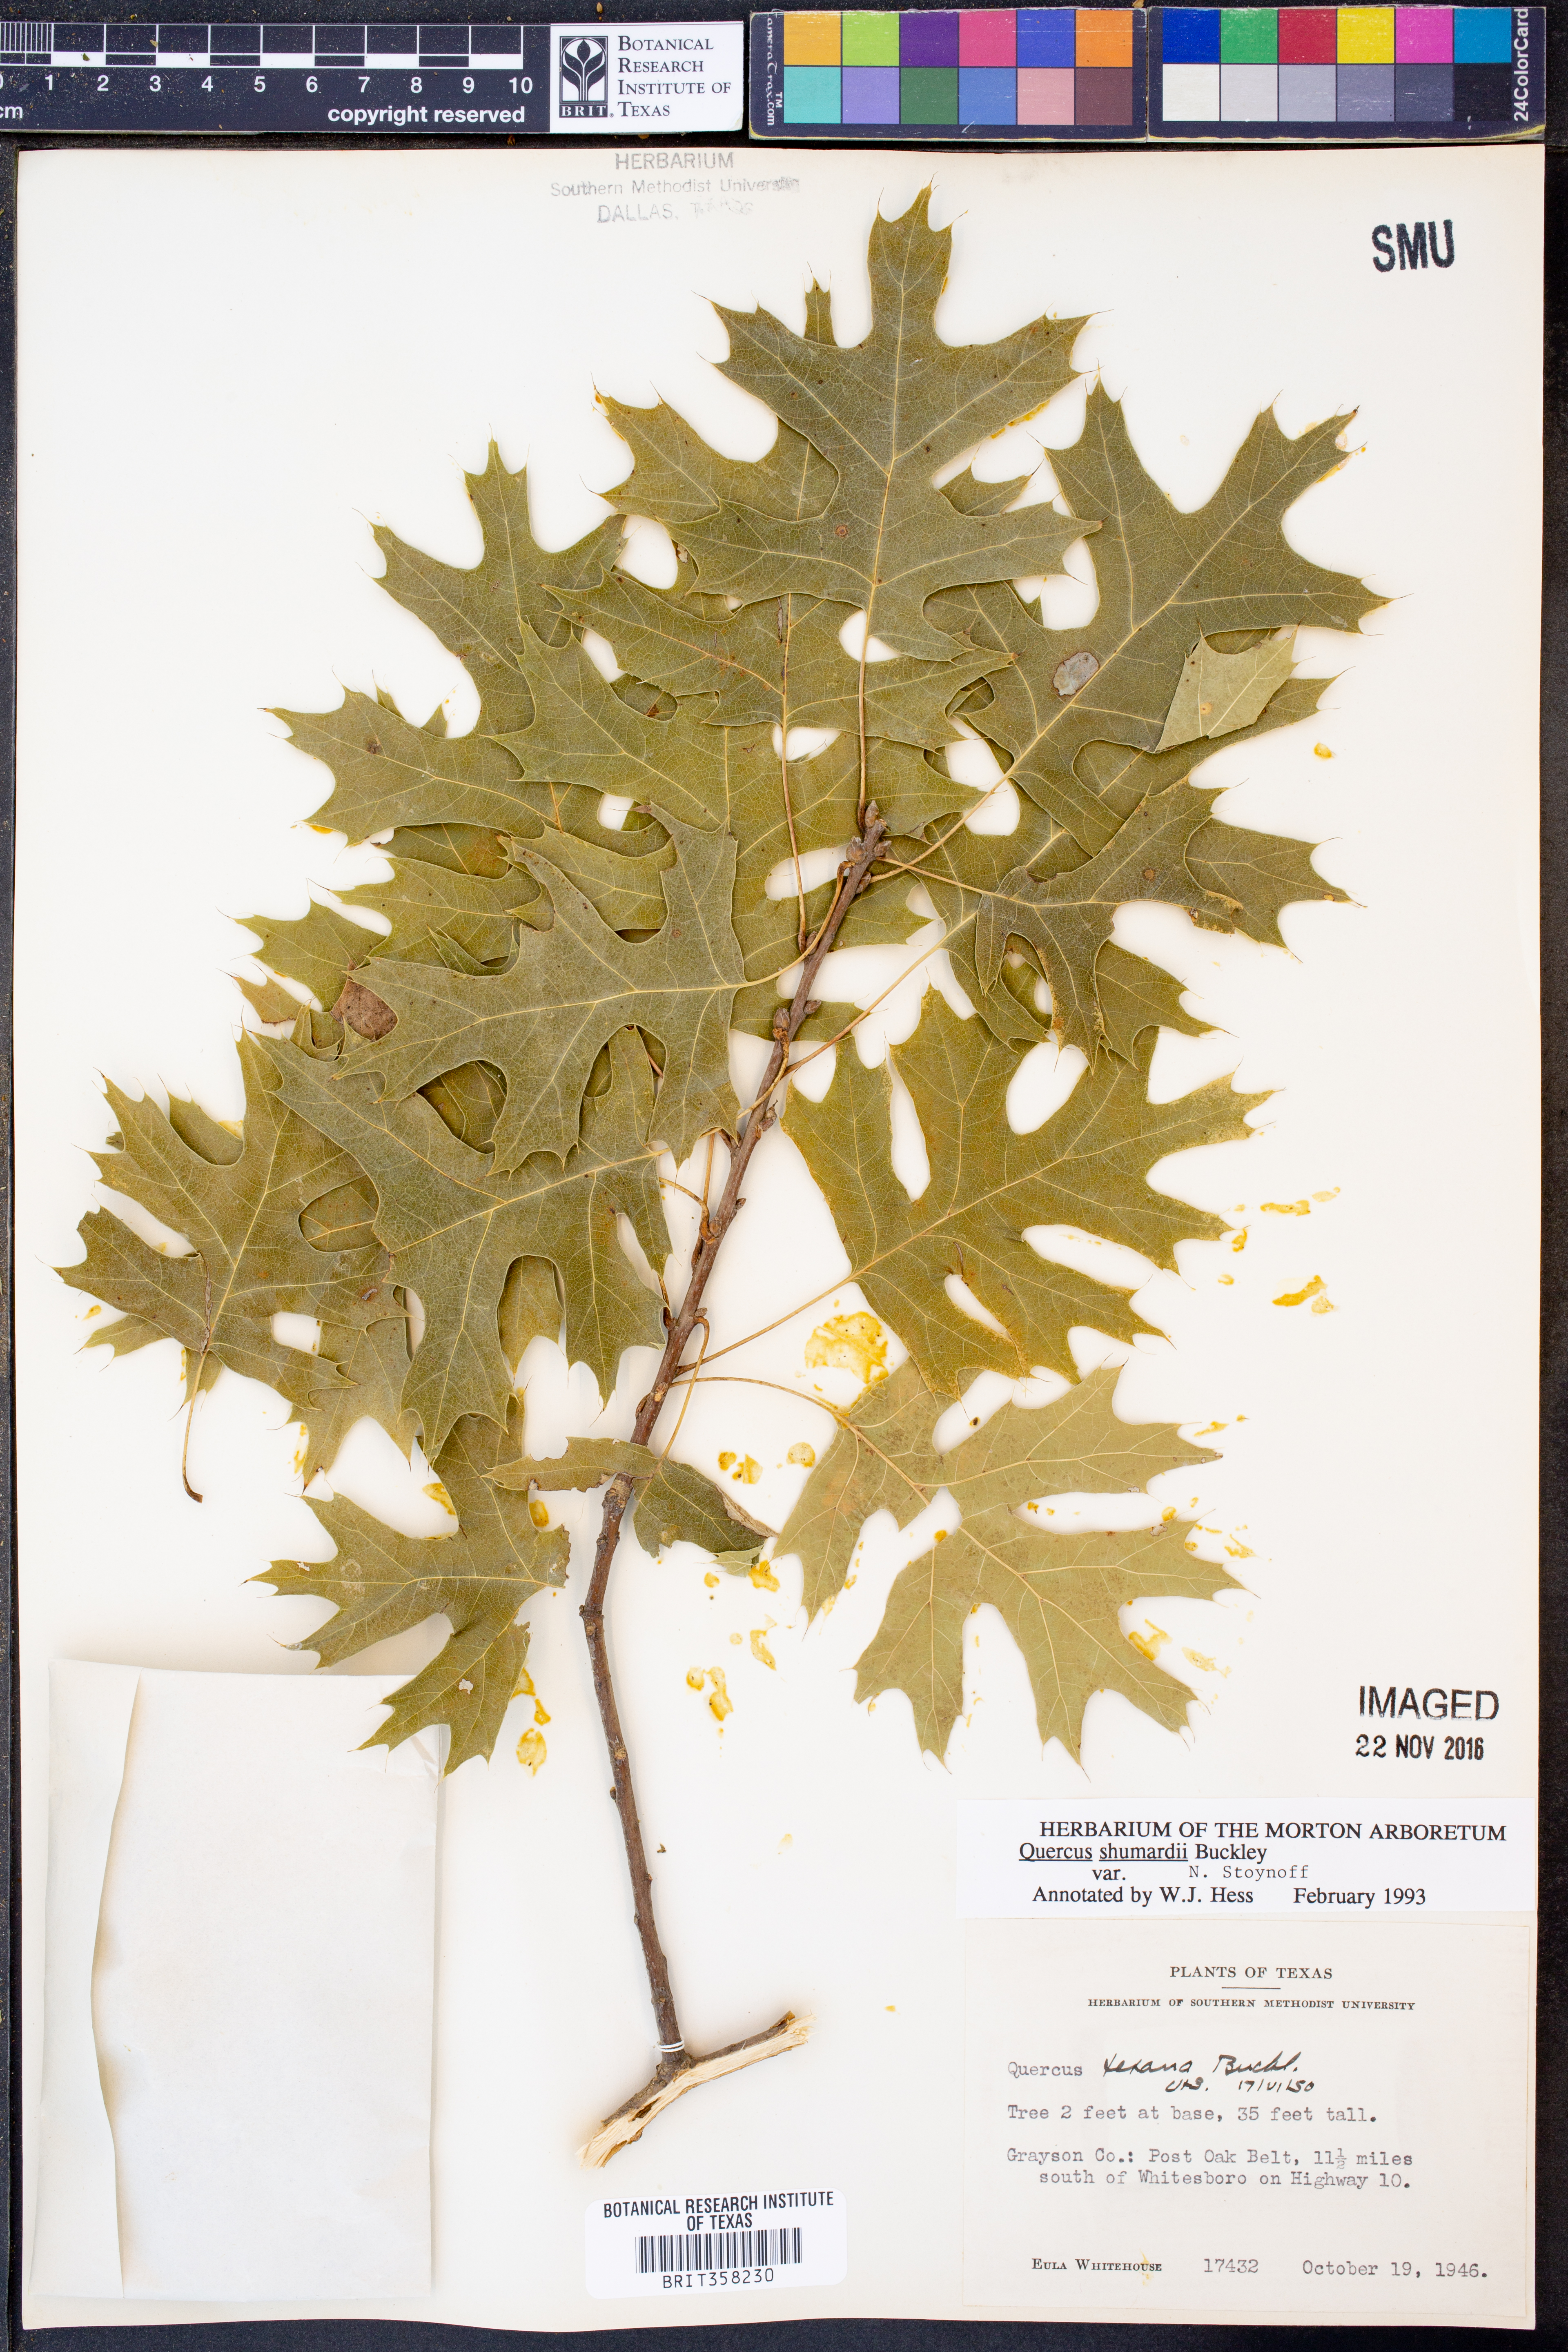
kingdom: Plantae
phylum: Tracheophyta
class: Magnoliopsida
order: Fagales
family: Fagaceae
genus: Quercus
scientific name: Quercus shumardii
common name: Shumard oak
